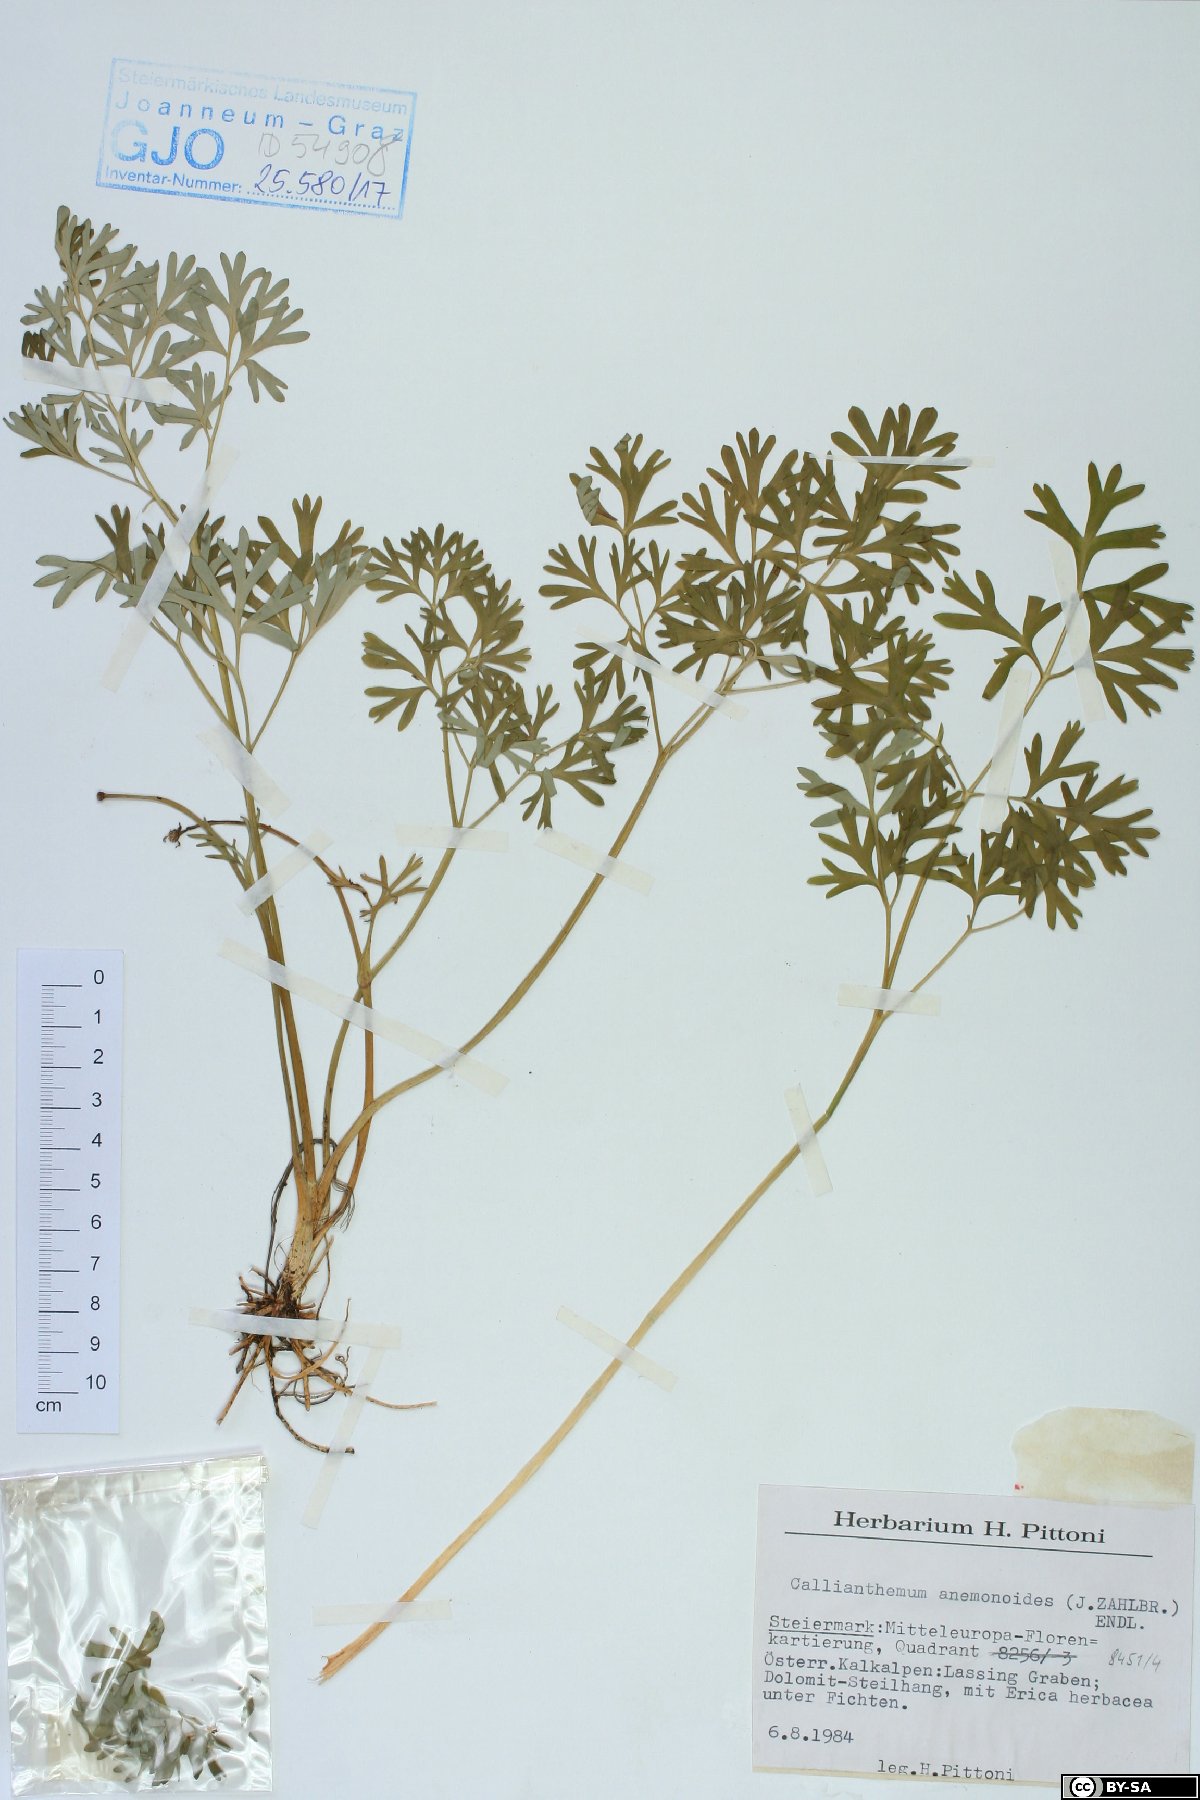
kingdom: Plantae
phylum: Tracheophyta
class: Magnoliopsida
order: Ranunculales
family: Ranunculaceae
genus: Callianthemum
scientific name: Callianthemum anemonoides
